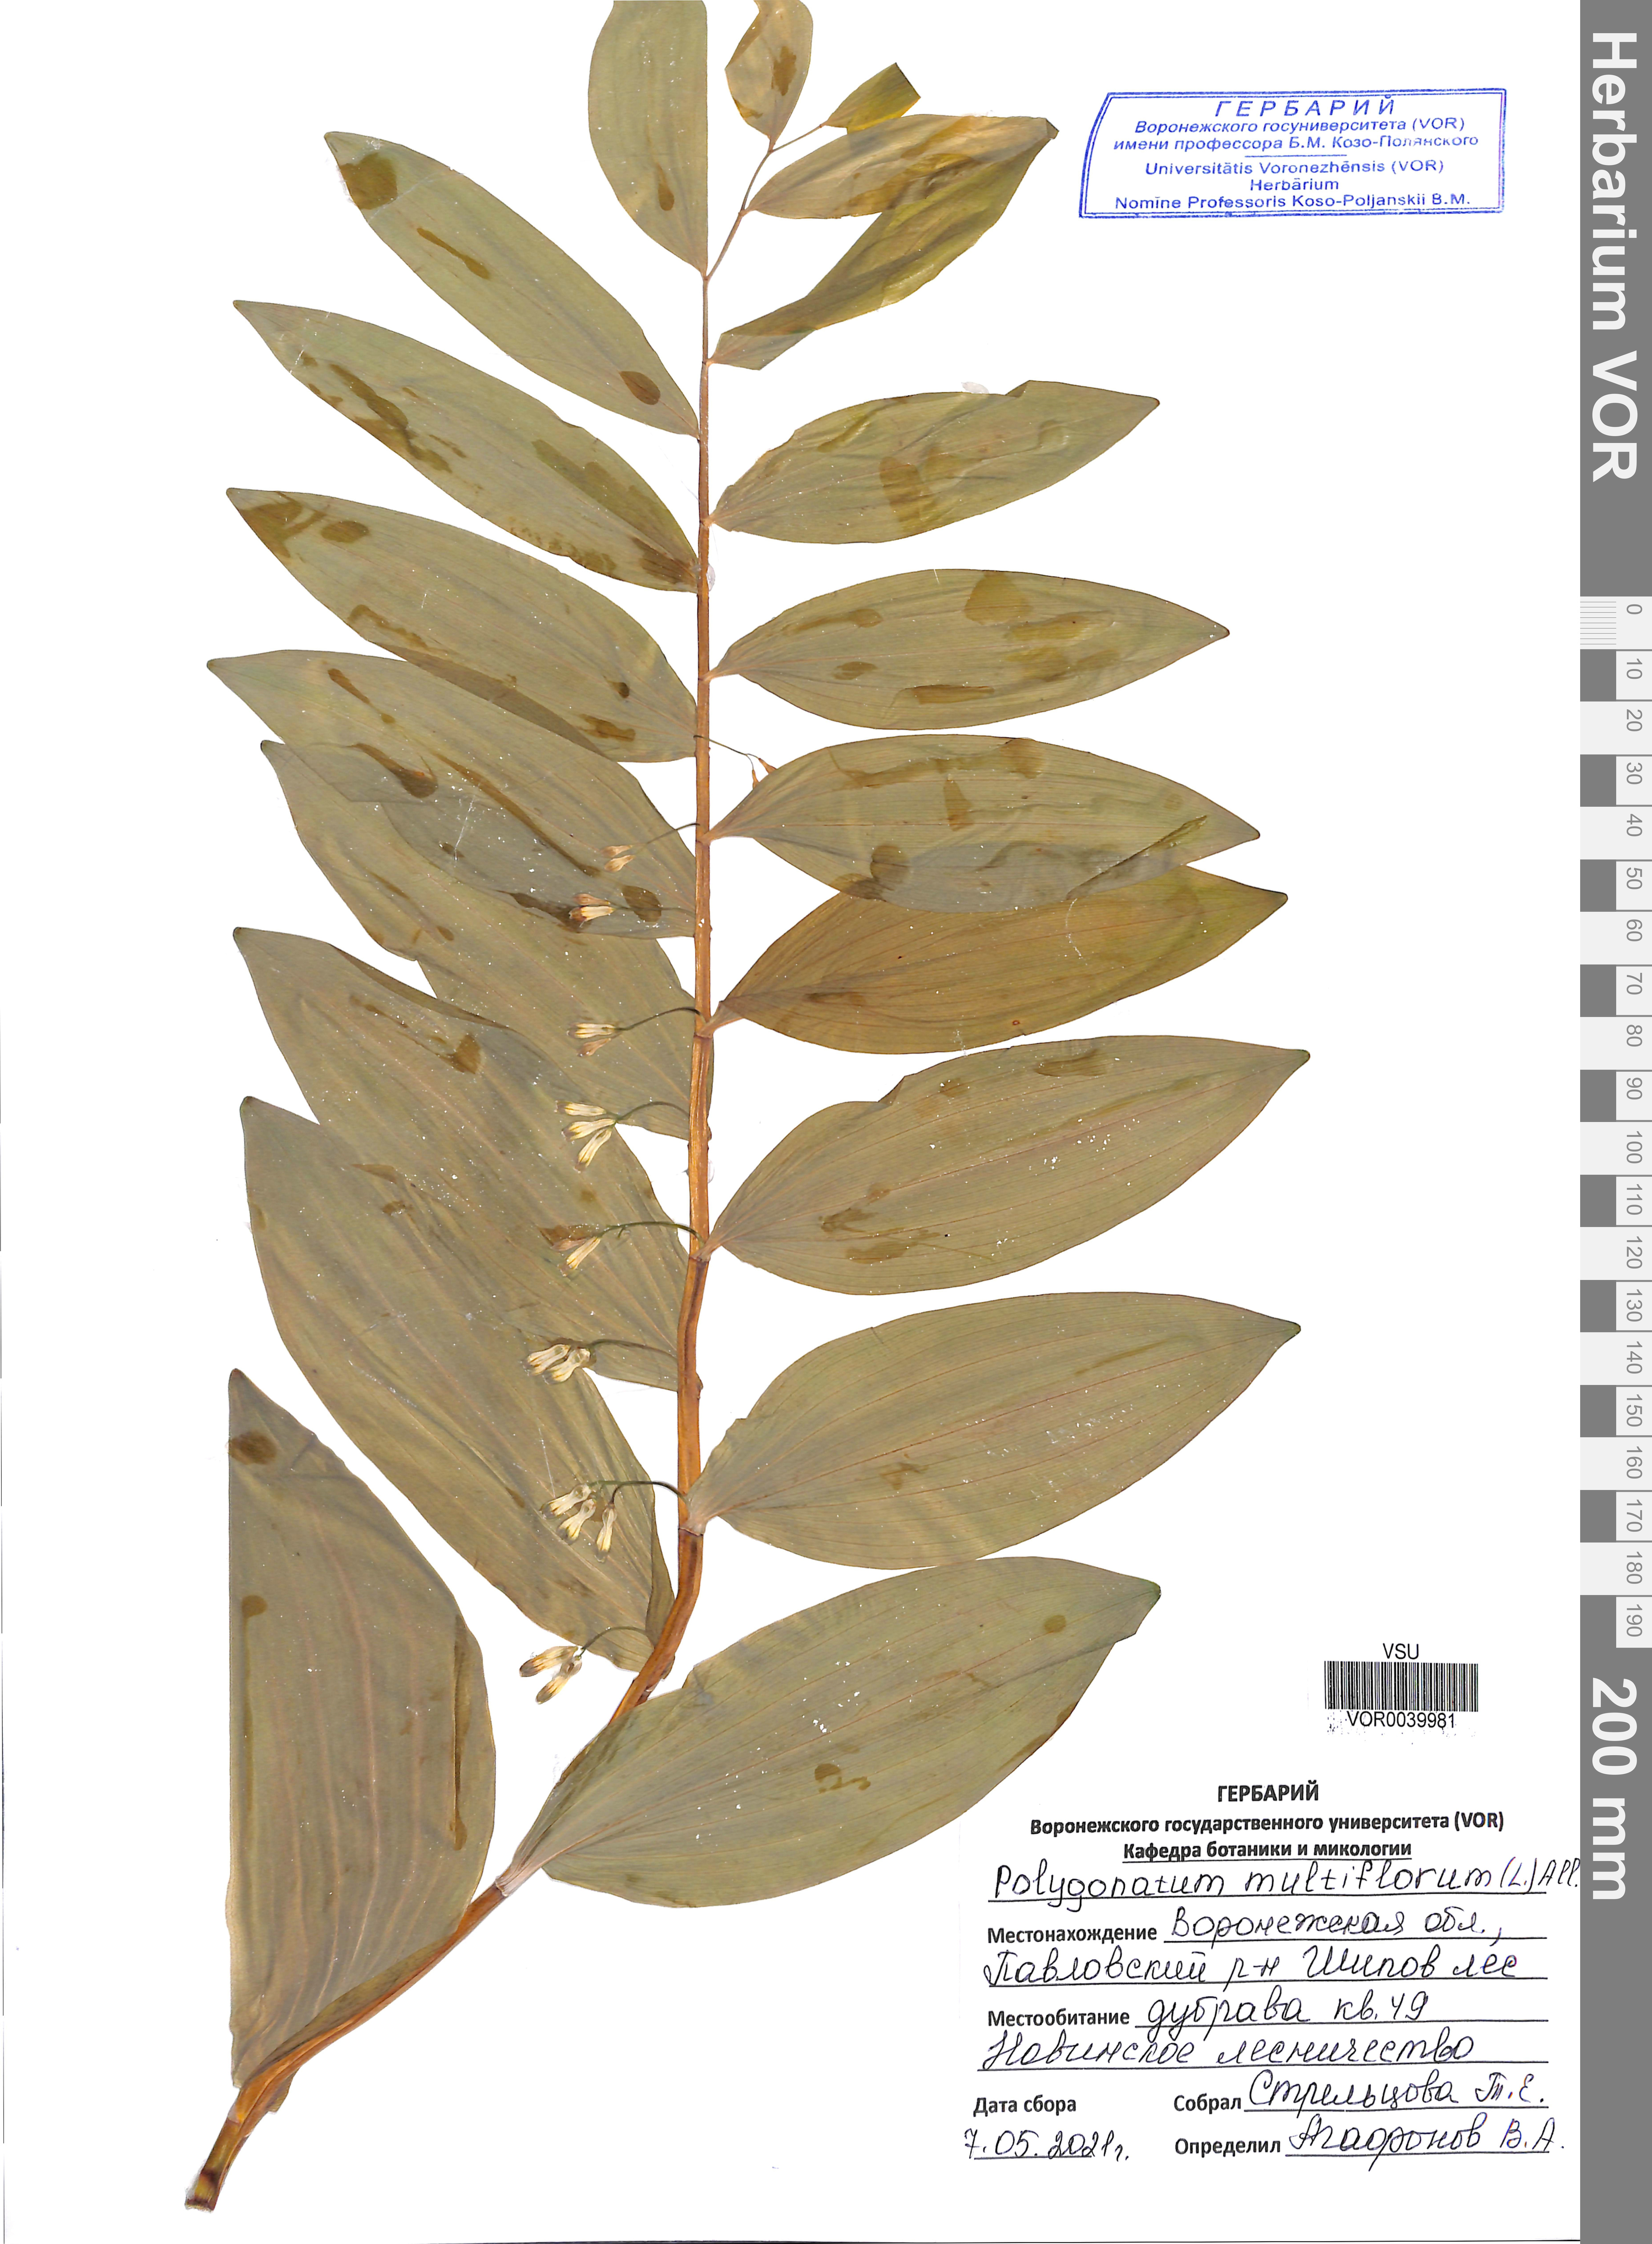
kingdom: Plantae
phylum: Tracheophyta
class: Liliopsida
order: Asparagales
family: Asparagaceae
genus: Polygonatum
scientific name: Polygonatum multiflorum
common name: Solomon's-seal
